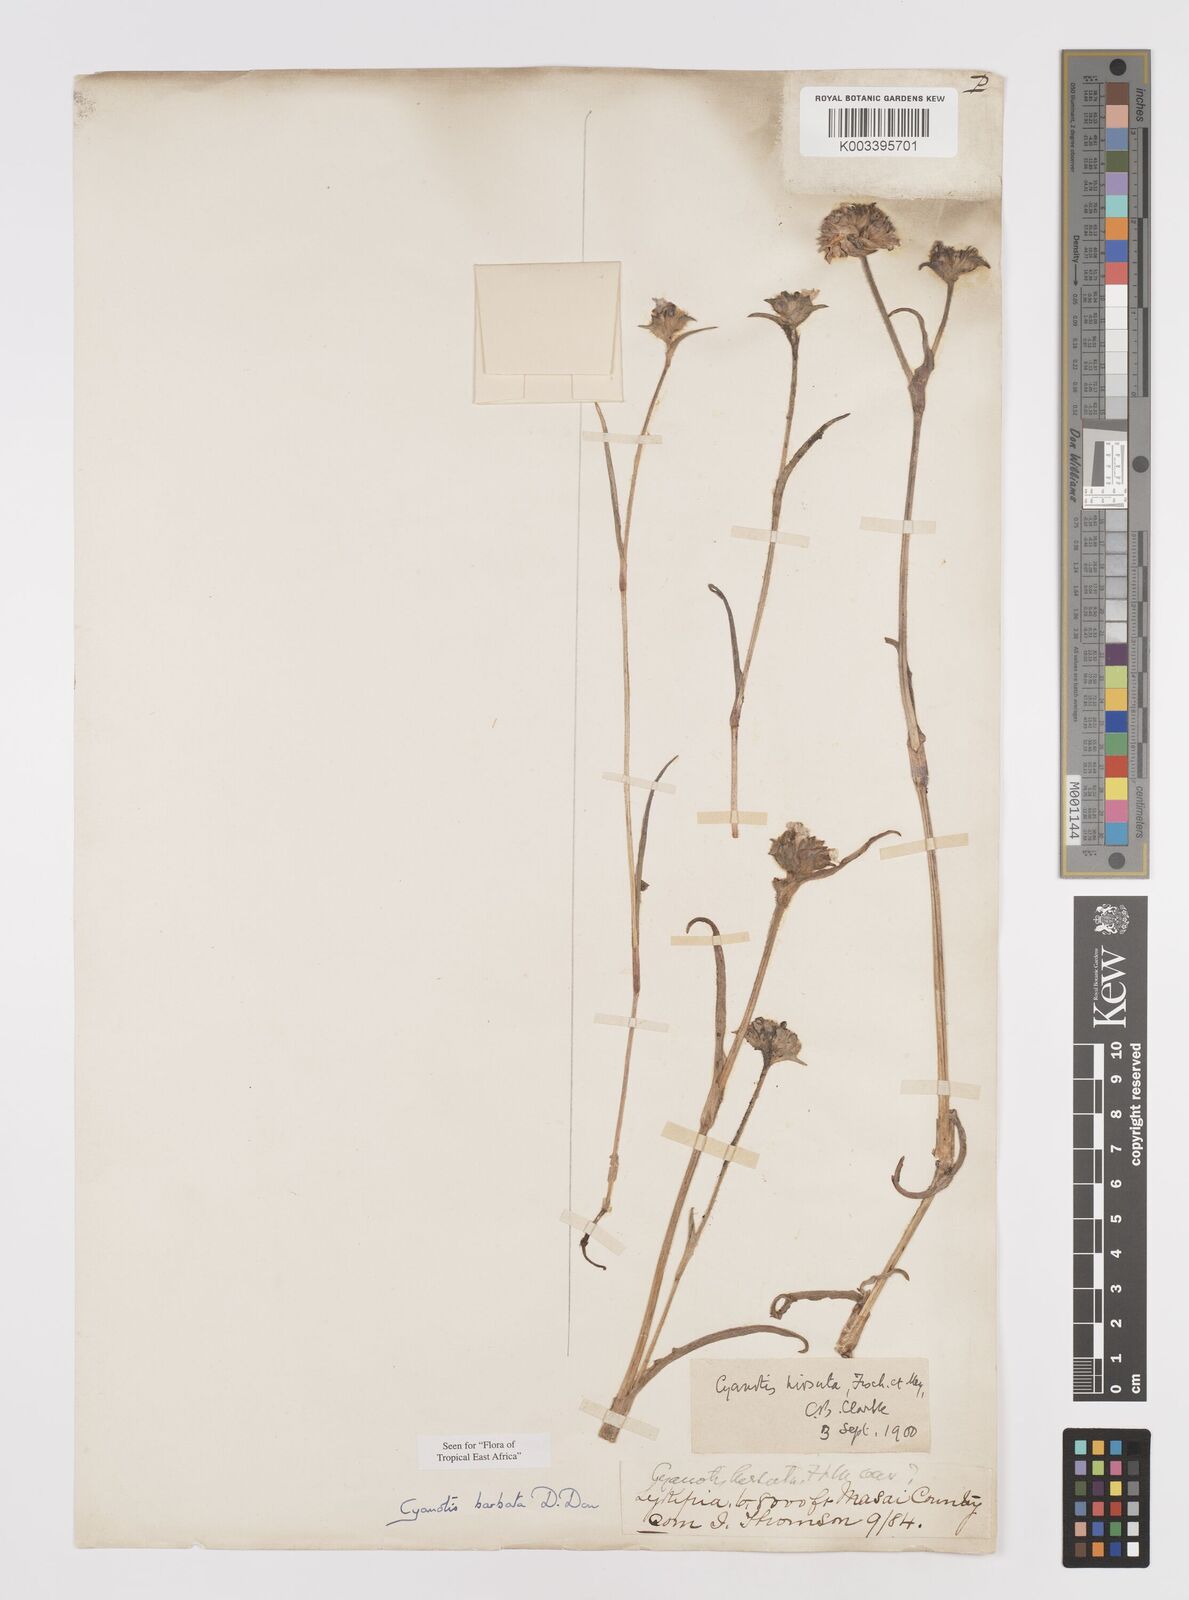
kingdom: Plantae
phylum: Tracheophyta
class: Liliopsida
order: Commelinales
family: Commelinaceae
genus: Cyanotis
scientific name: Cyanotis vaga
